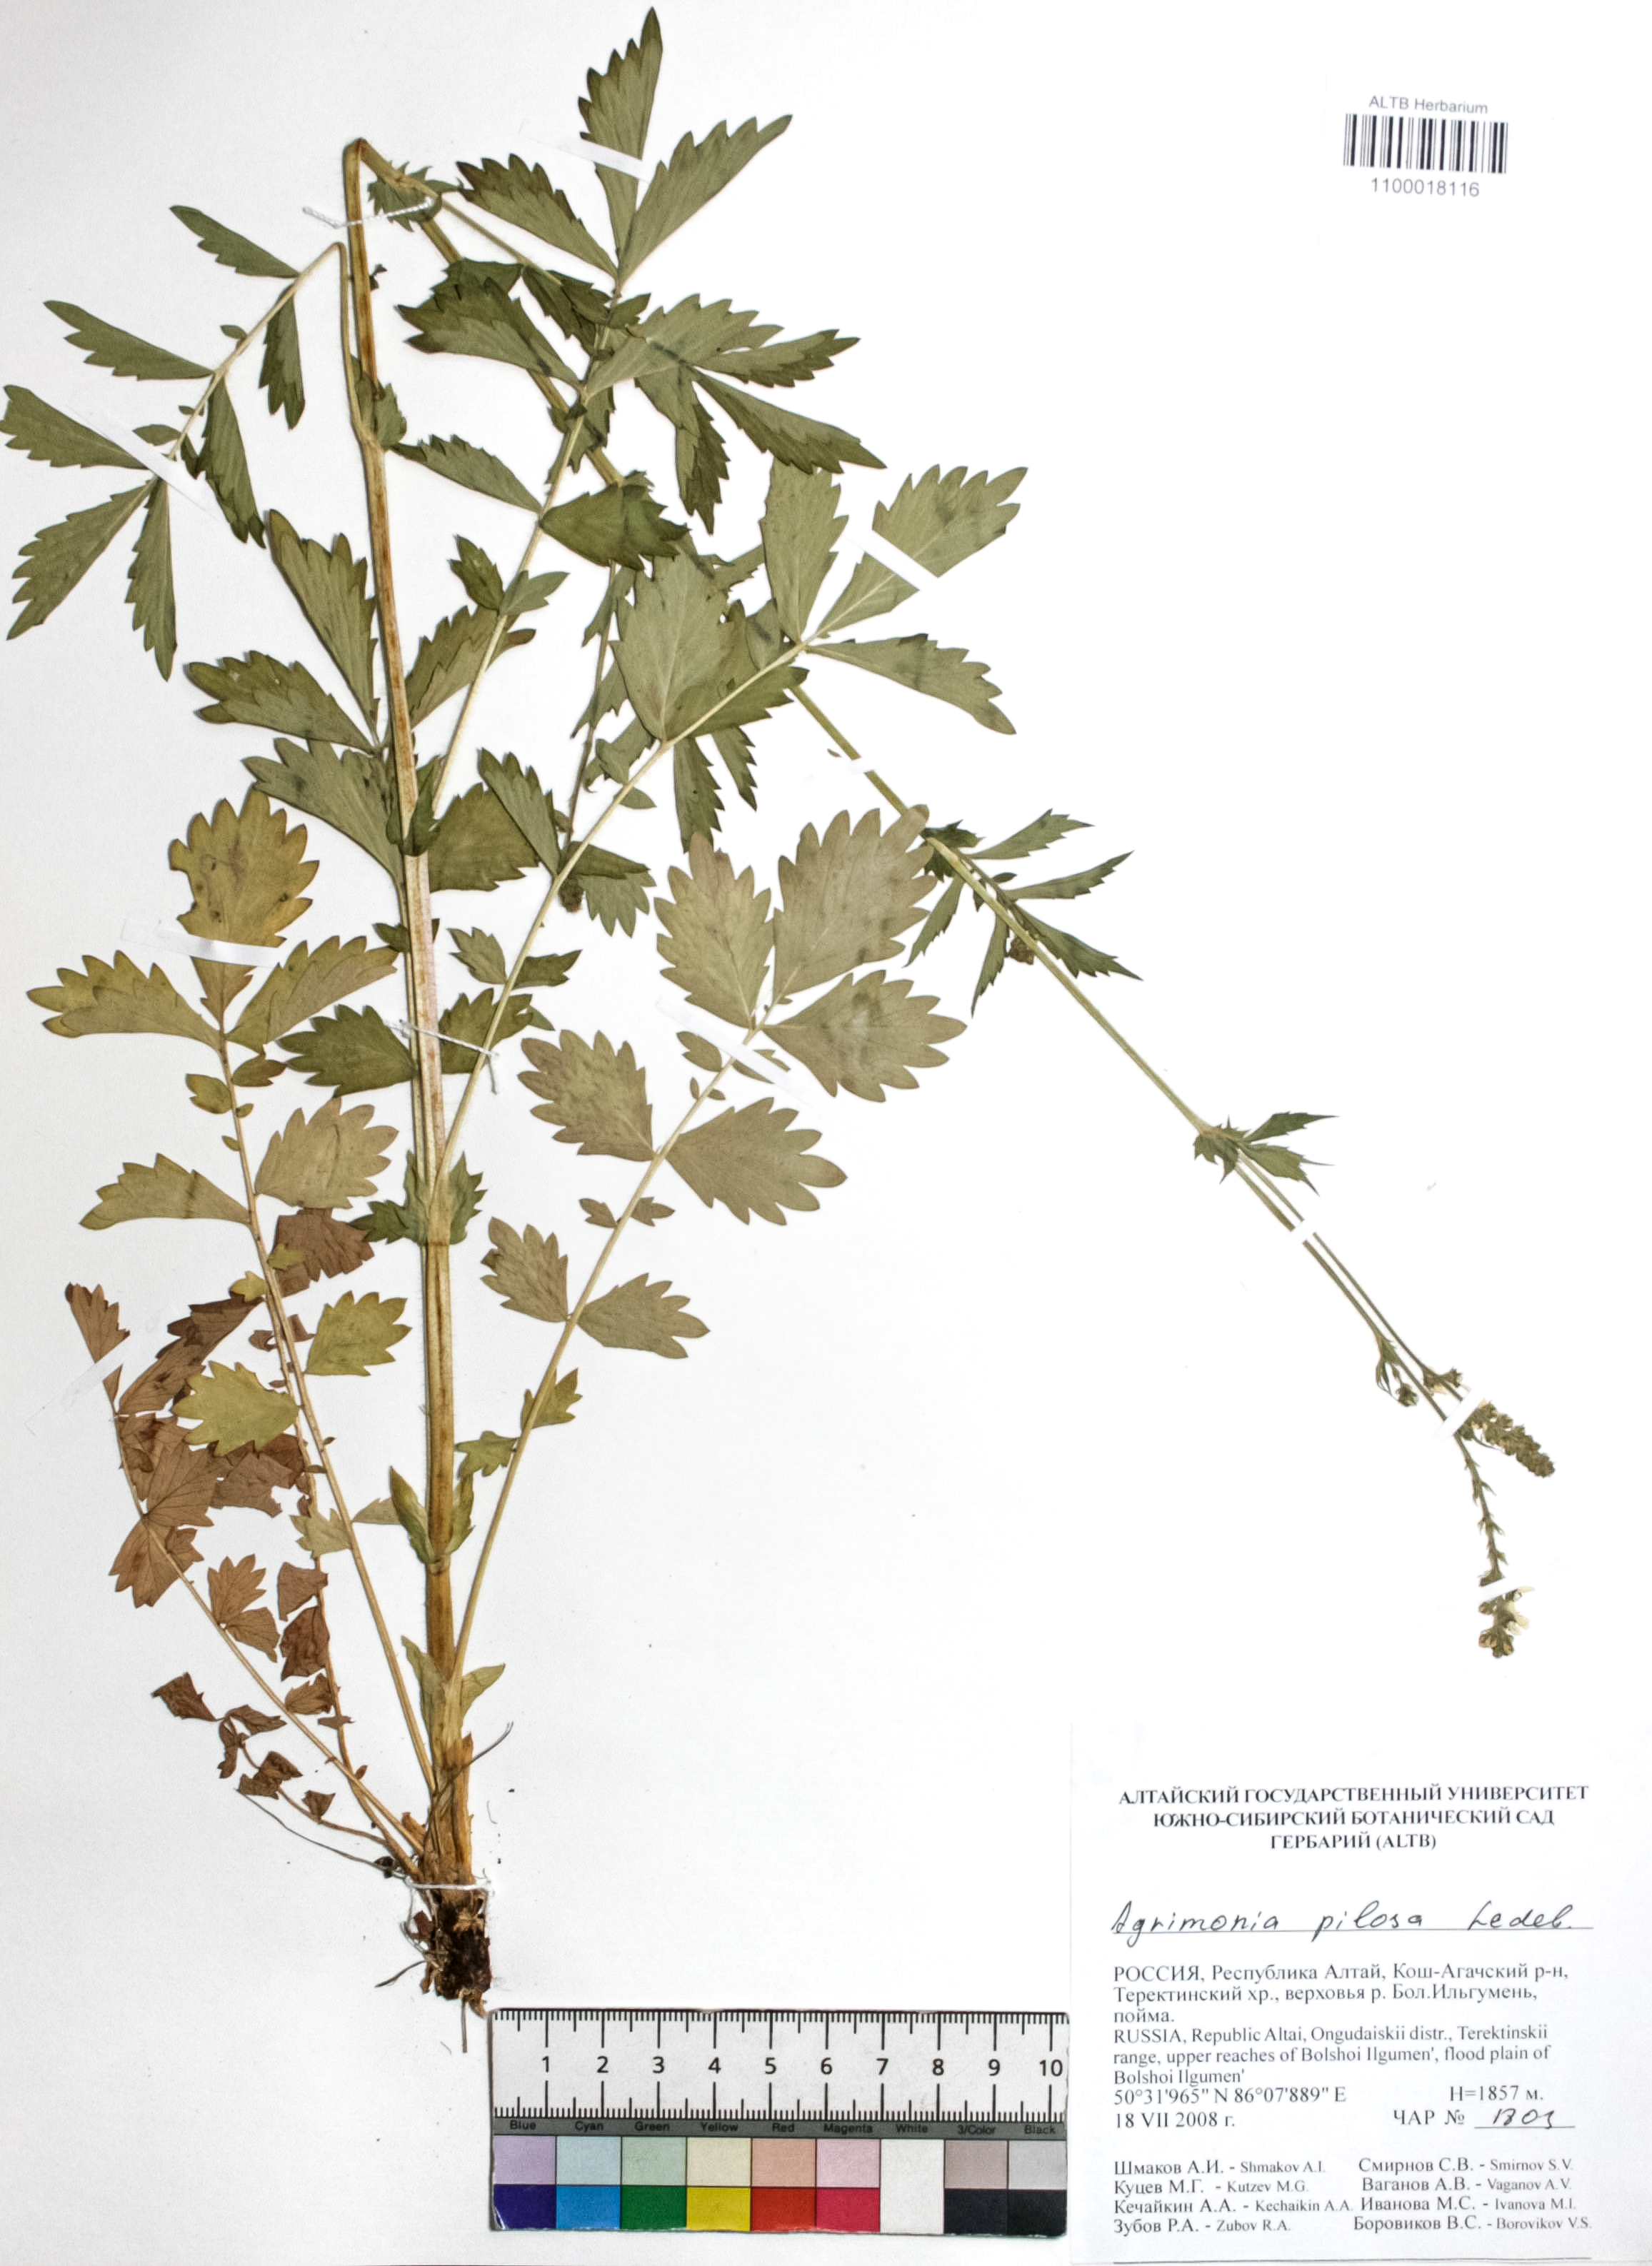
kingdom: Plantae
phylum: Tracheophyta
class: Magnoliopsida
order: Rosales
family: Rosaceae
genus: Agrimonia
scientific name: Agrimonia pilosa
